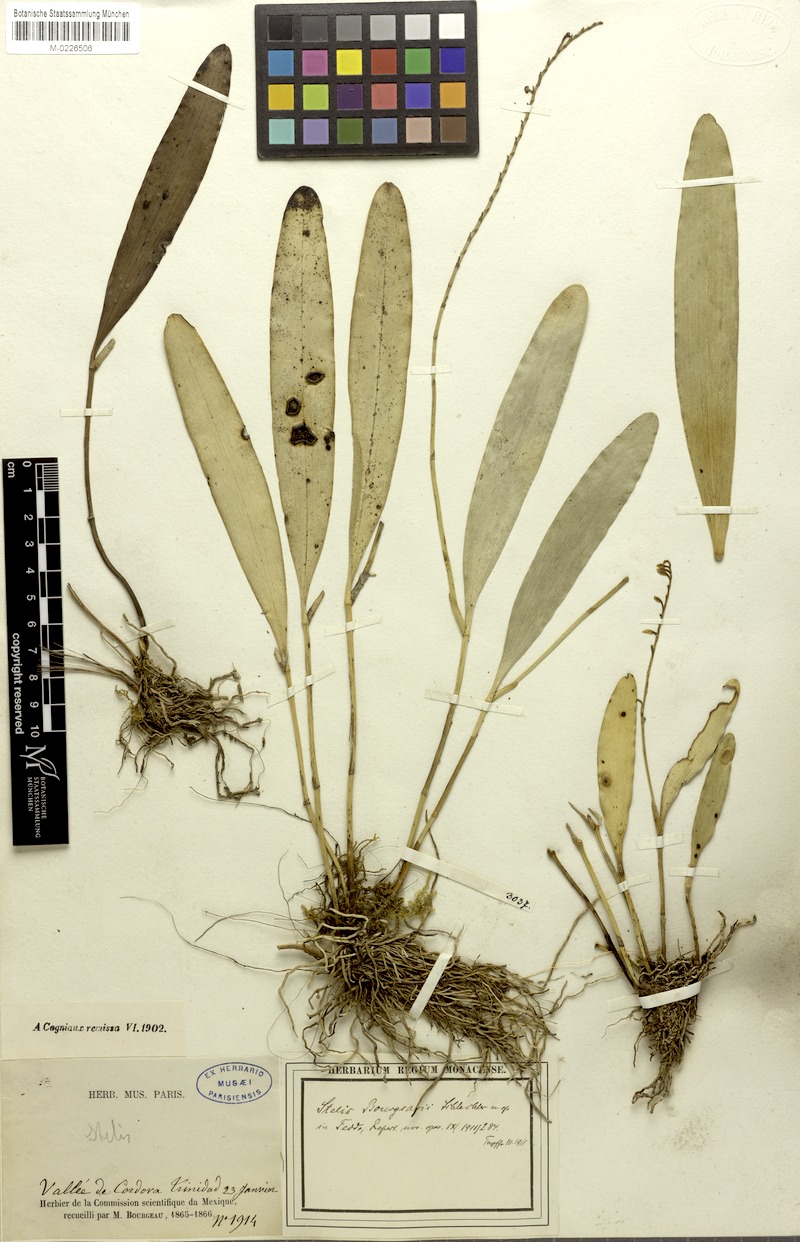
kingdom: Plantae
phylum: Tracheophyta
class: Liliopsida
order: Asparagales
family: Orchidaceae
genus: Stelis
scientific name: Stelis purpurascens
